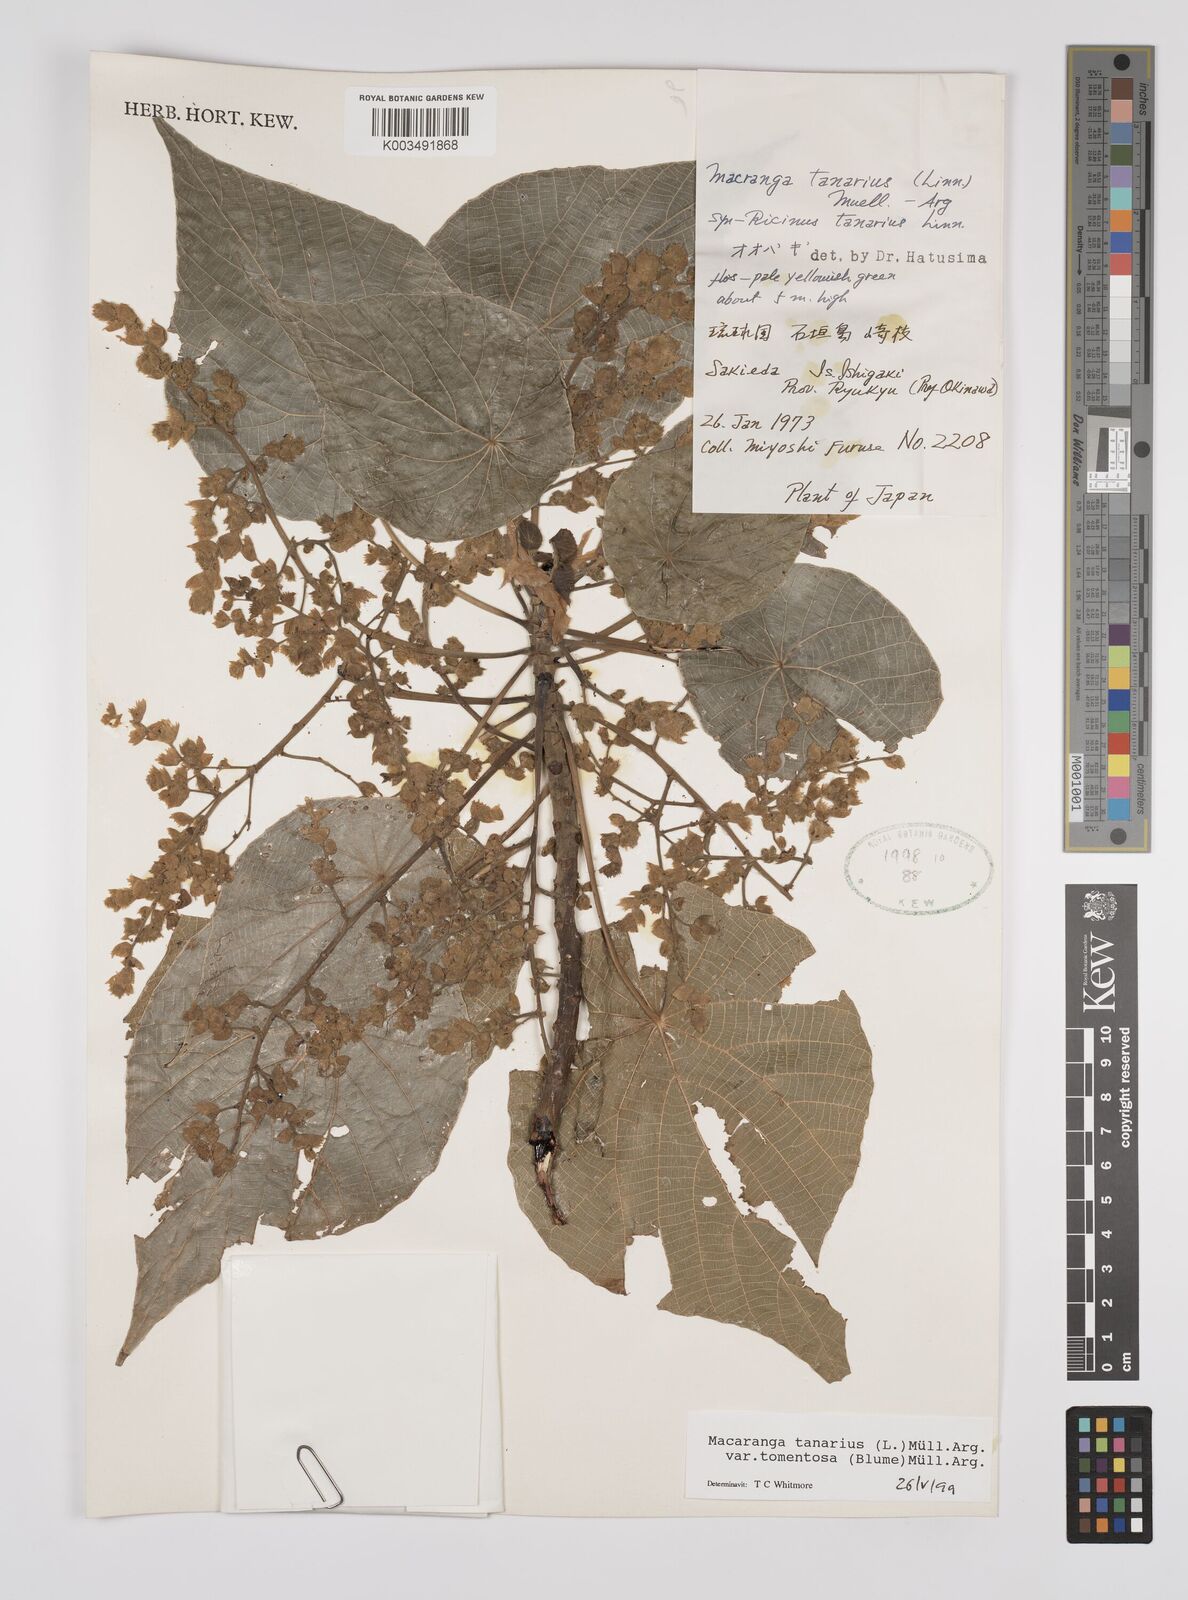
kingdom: Plantae
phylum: Tracheophyta
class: Magnoliopsida
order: Malpighiales
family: Euphorbiaceae
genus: Macaranga
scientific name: Macaranga tanarius
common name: Parasol leaf tree
